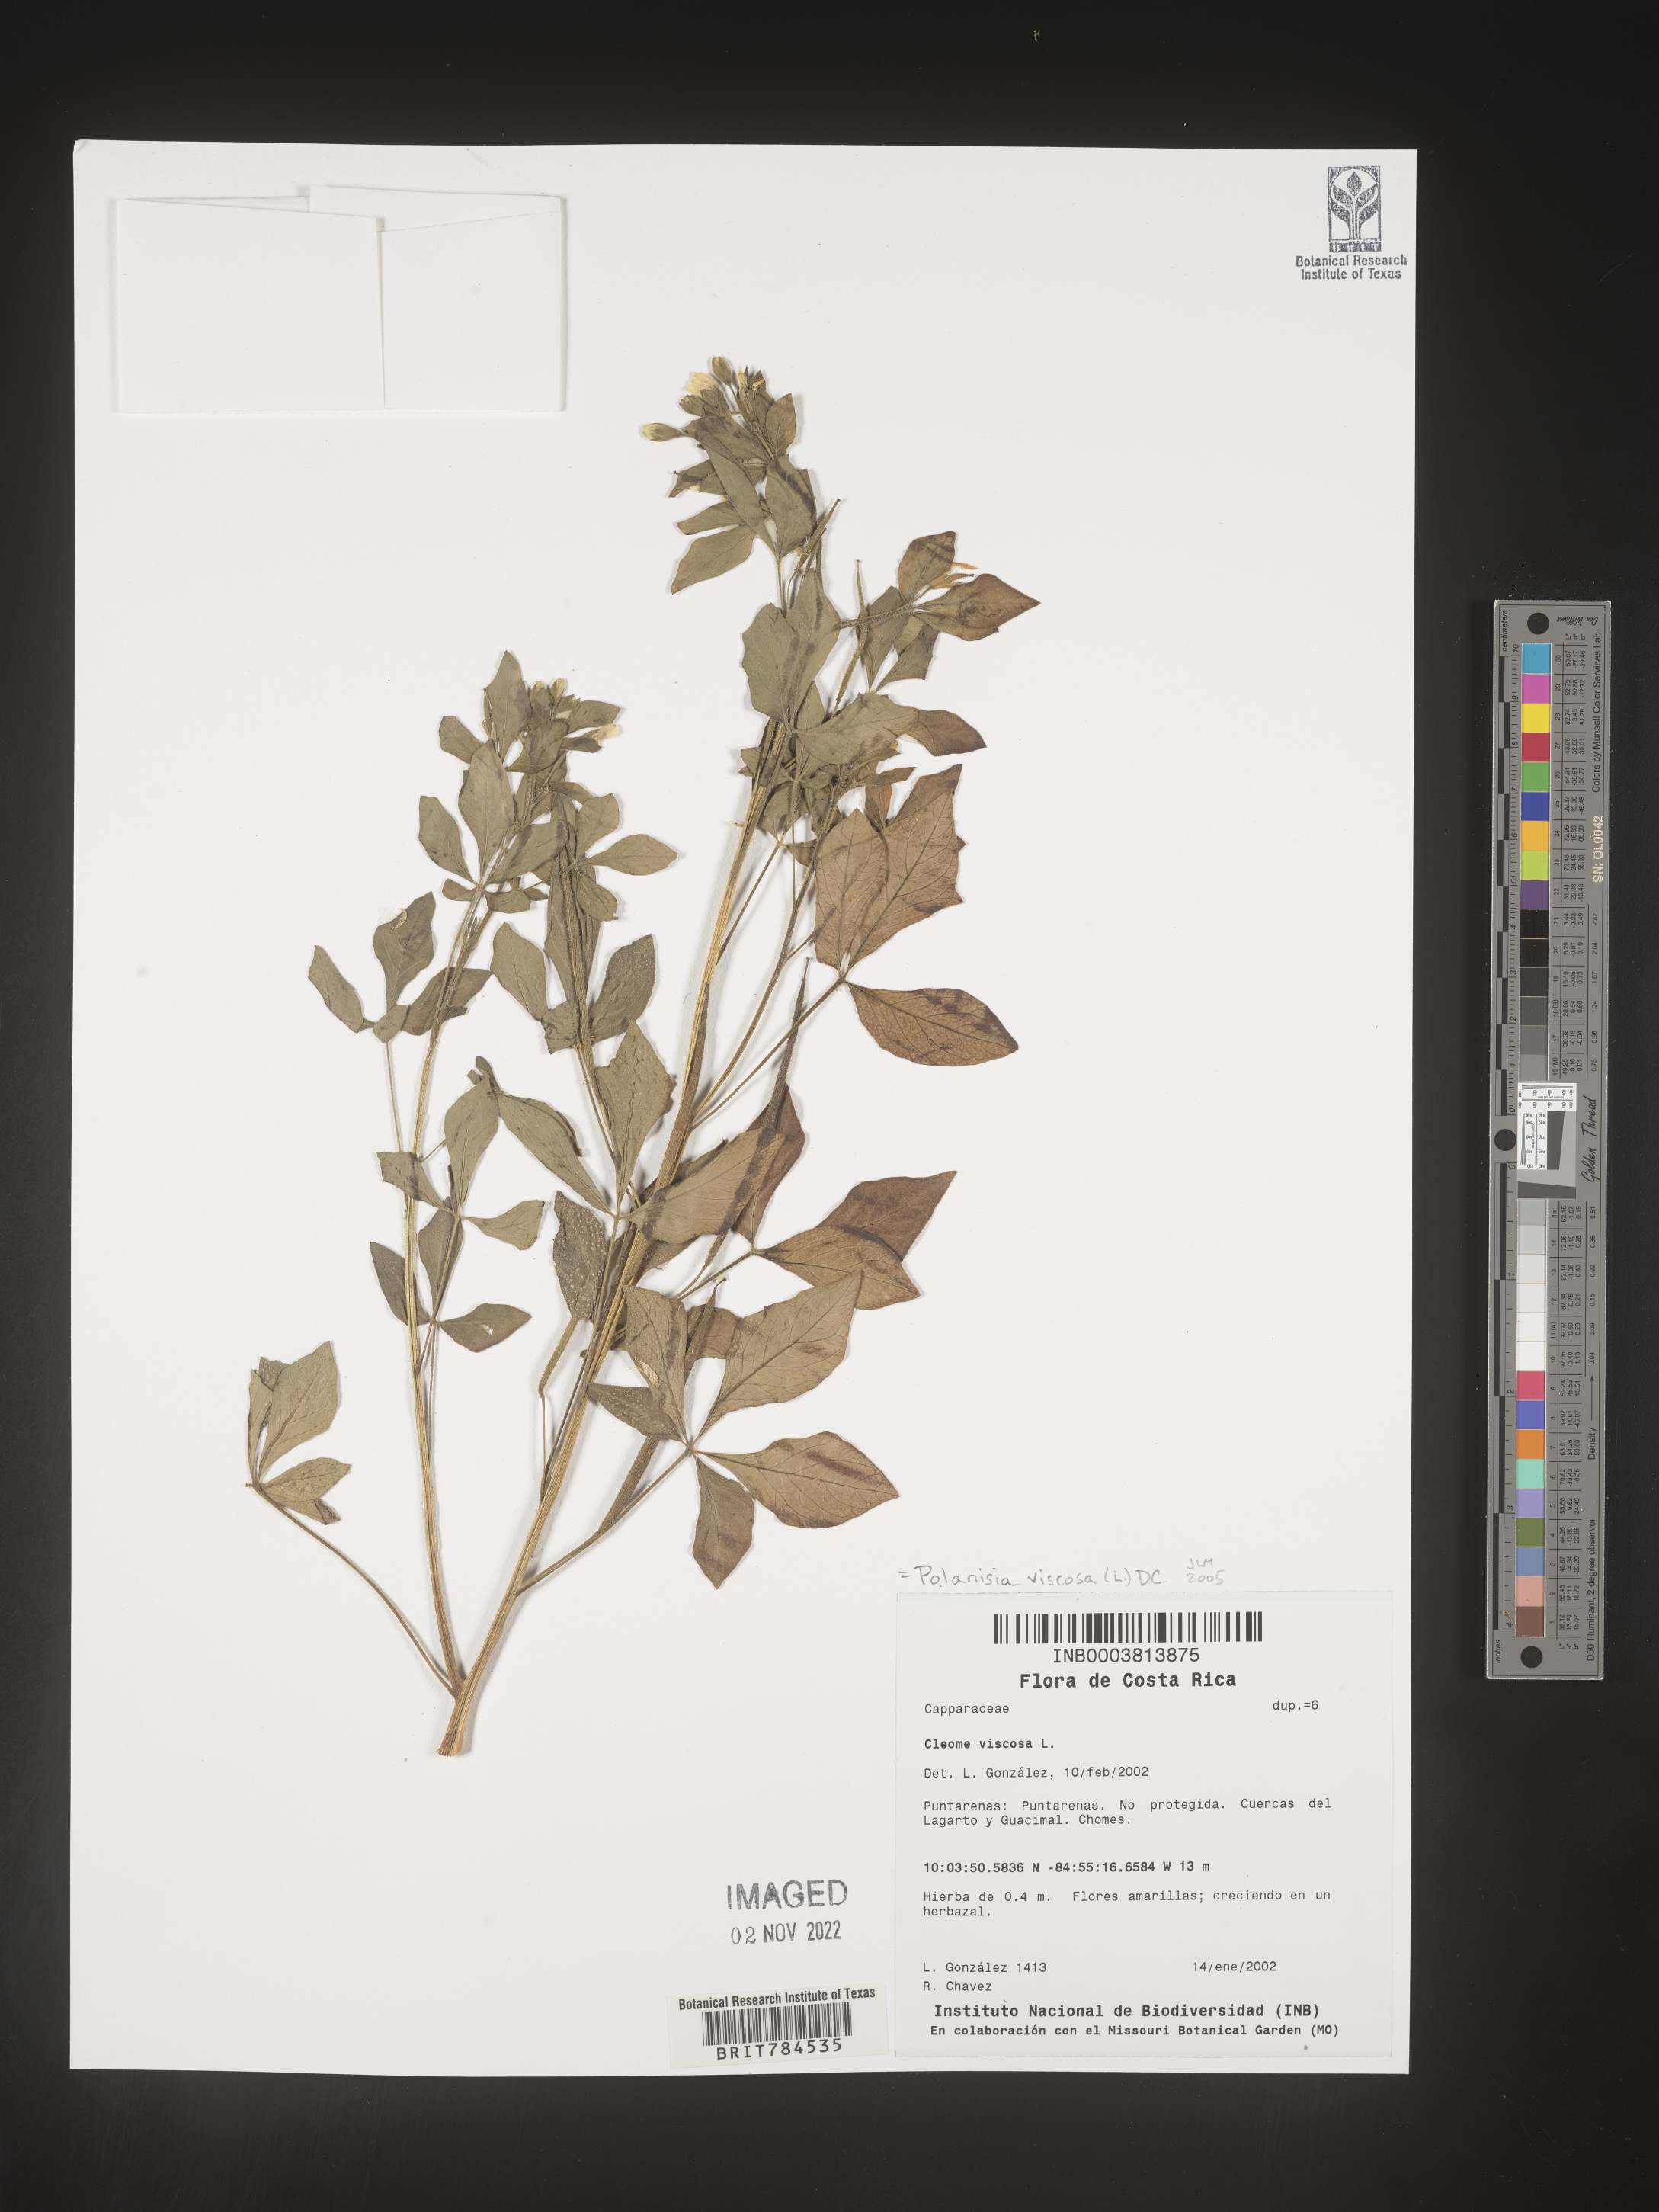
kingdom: Plantae
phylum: Tracheophyta
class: Magnoliopsida
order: Brassicales
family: Cleomaceae
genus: Polanisia
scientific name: Polanisia
